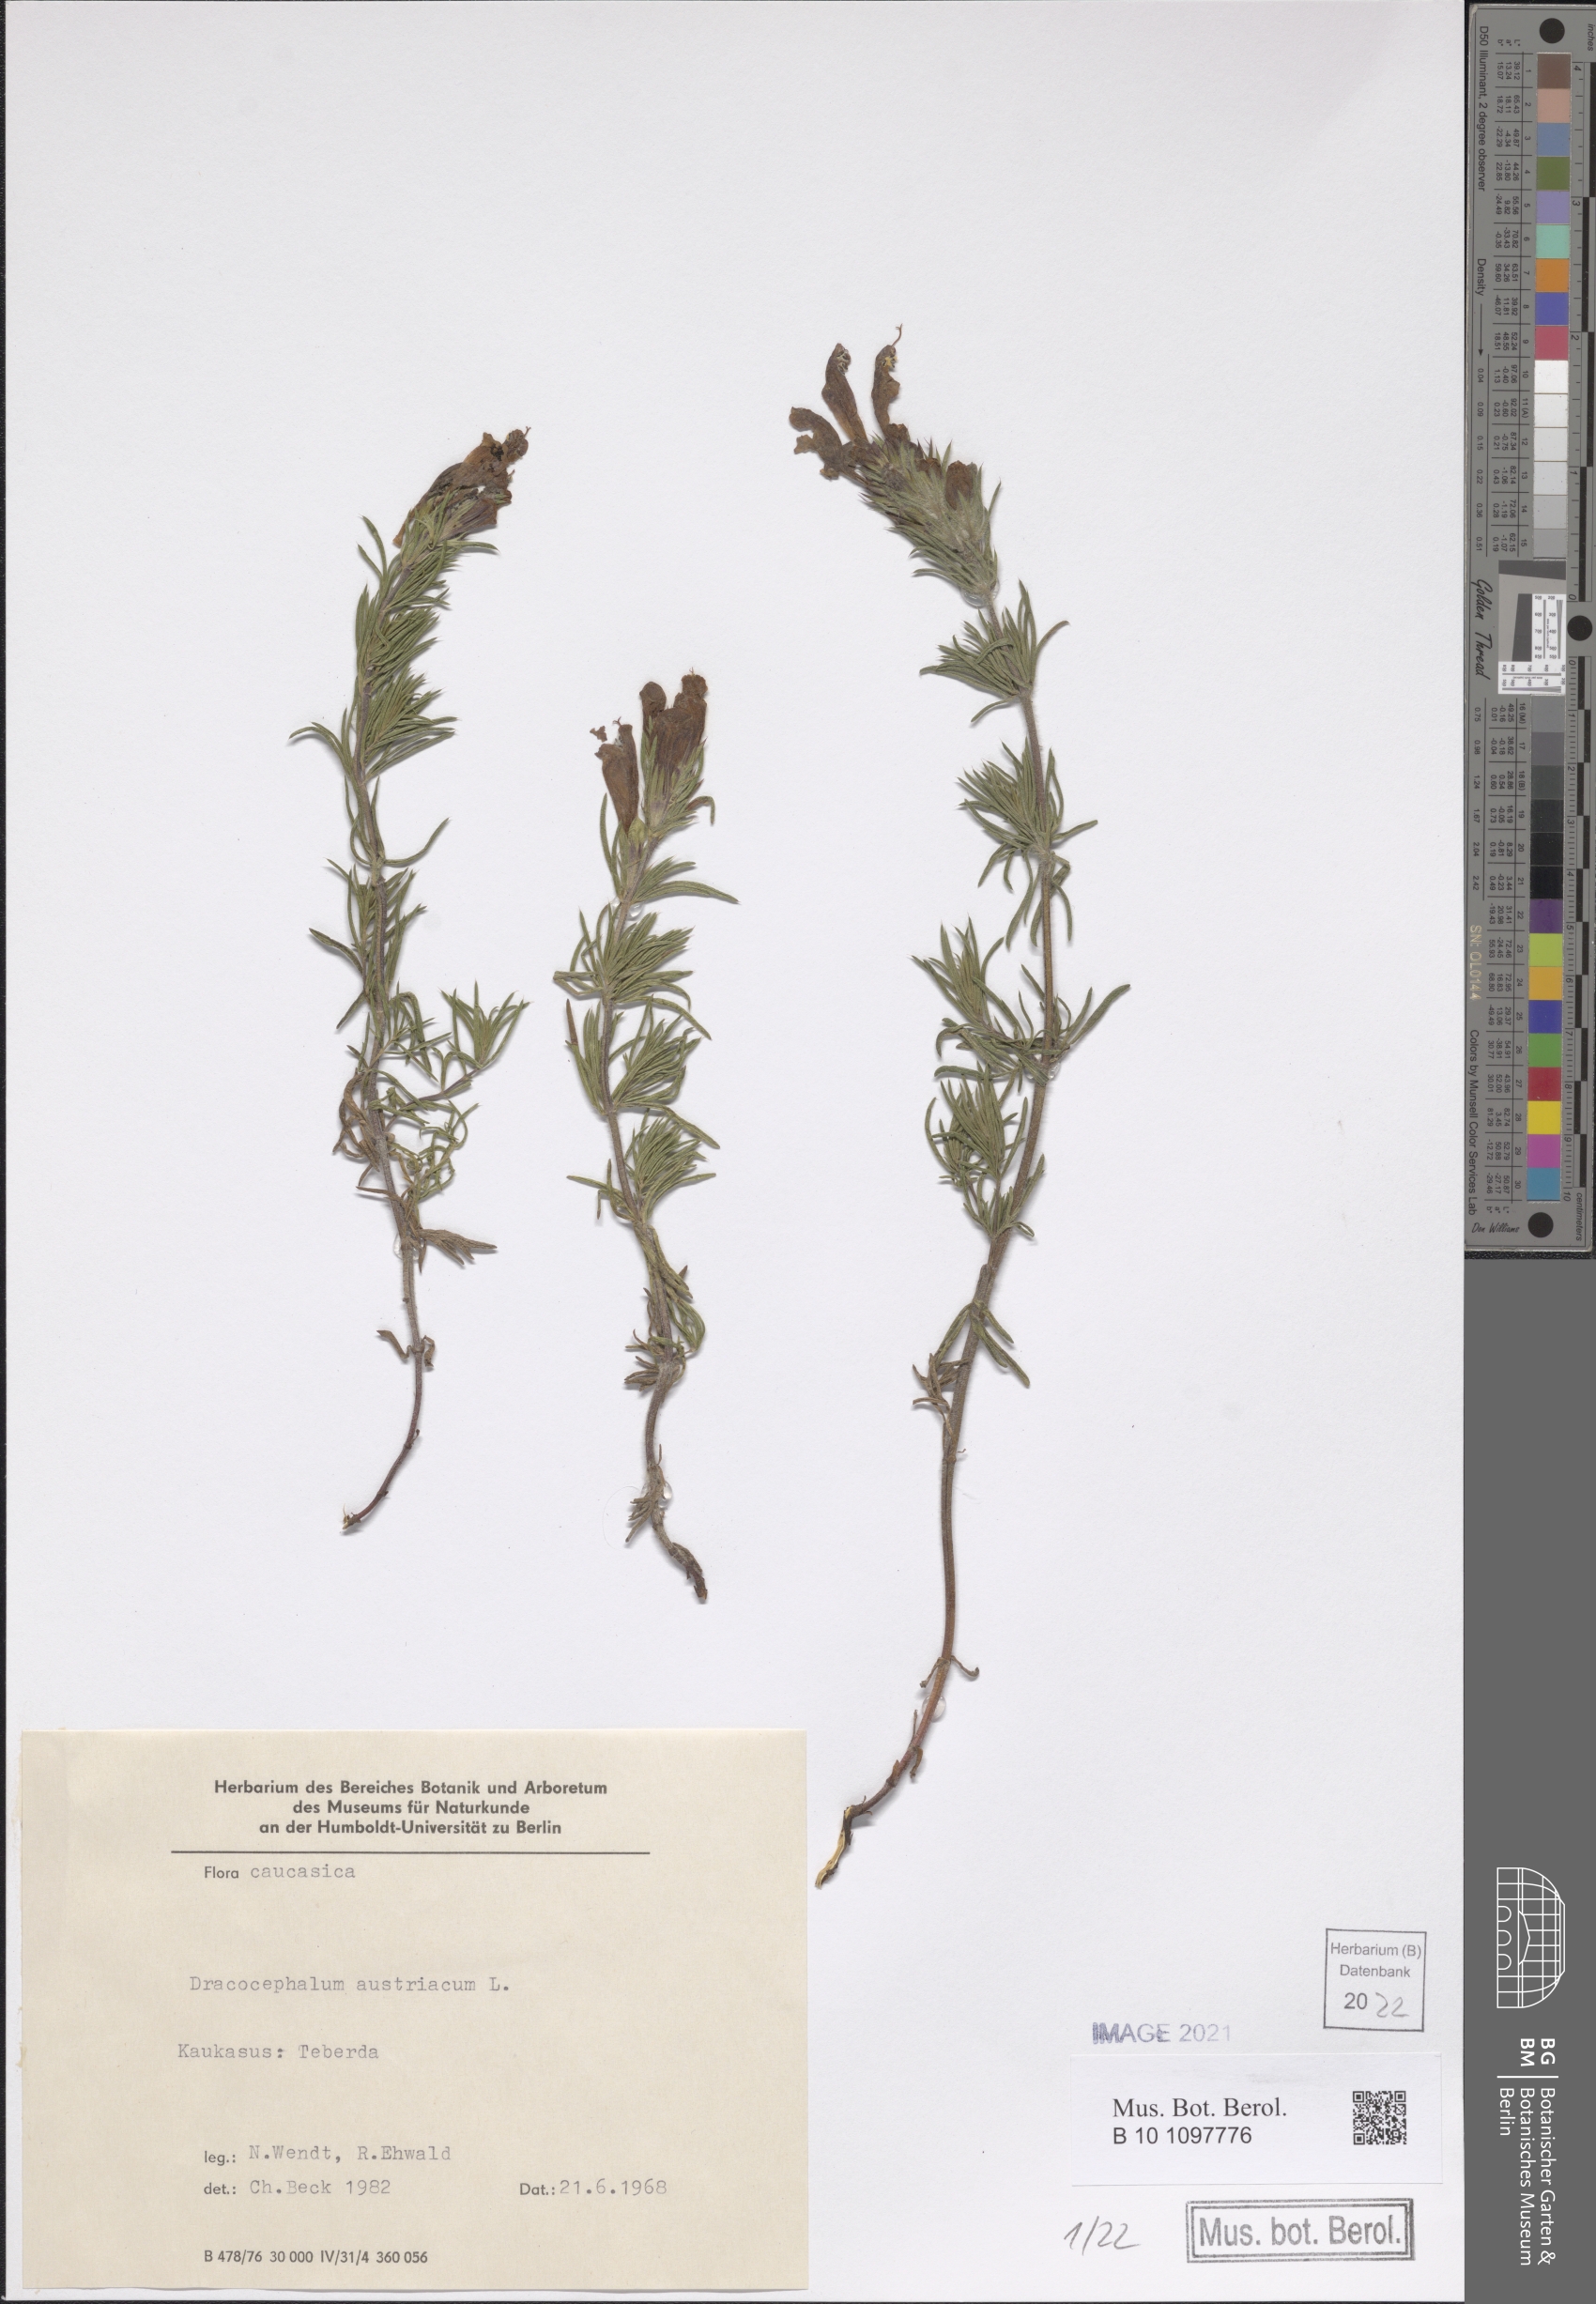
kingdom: Plantae
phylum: Tracheophyta
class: Magnoliopsida
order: Lamiales
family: Lamiaceae
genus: Dracocephalum
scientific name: Dracocephalum austriacum
